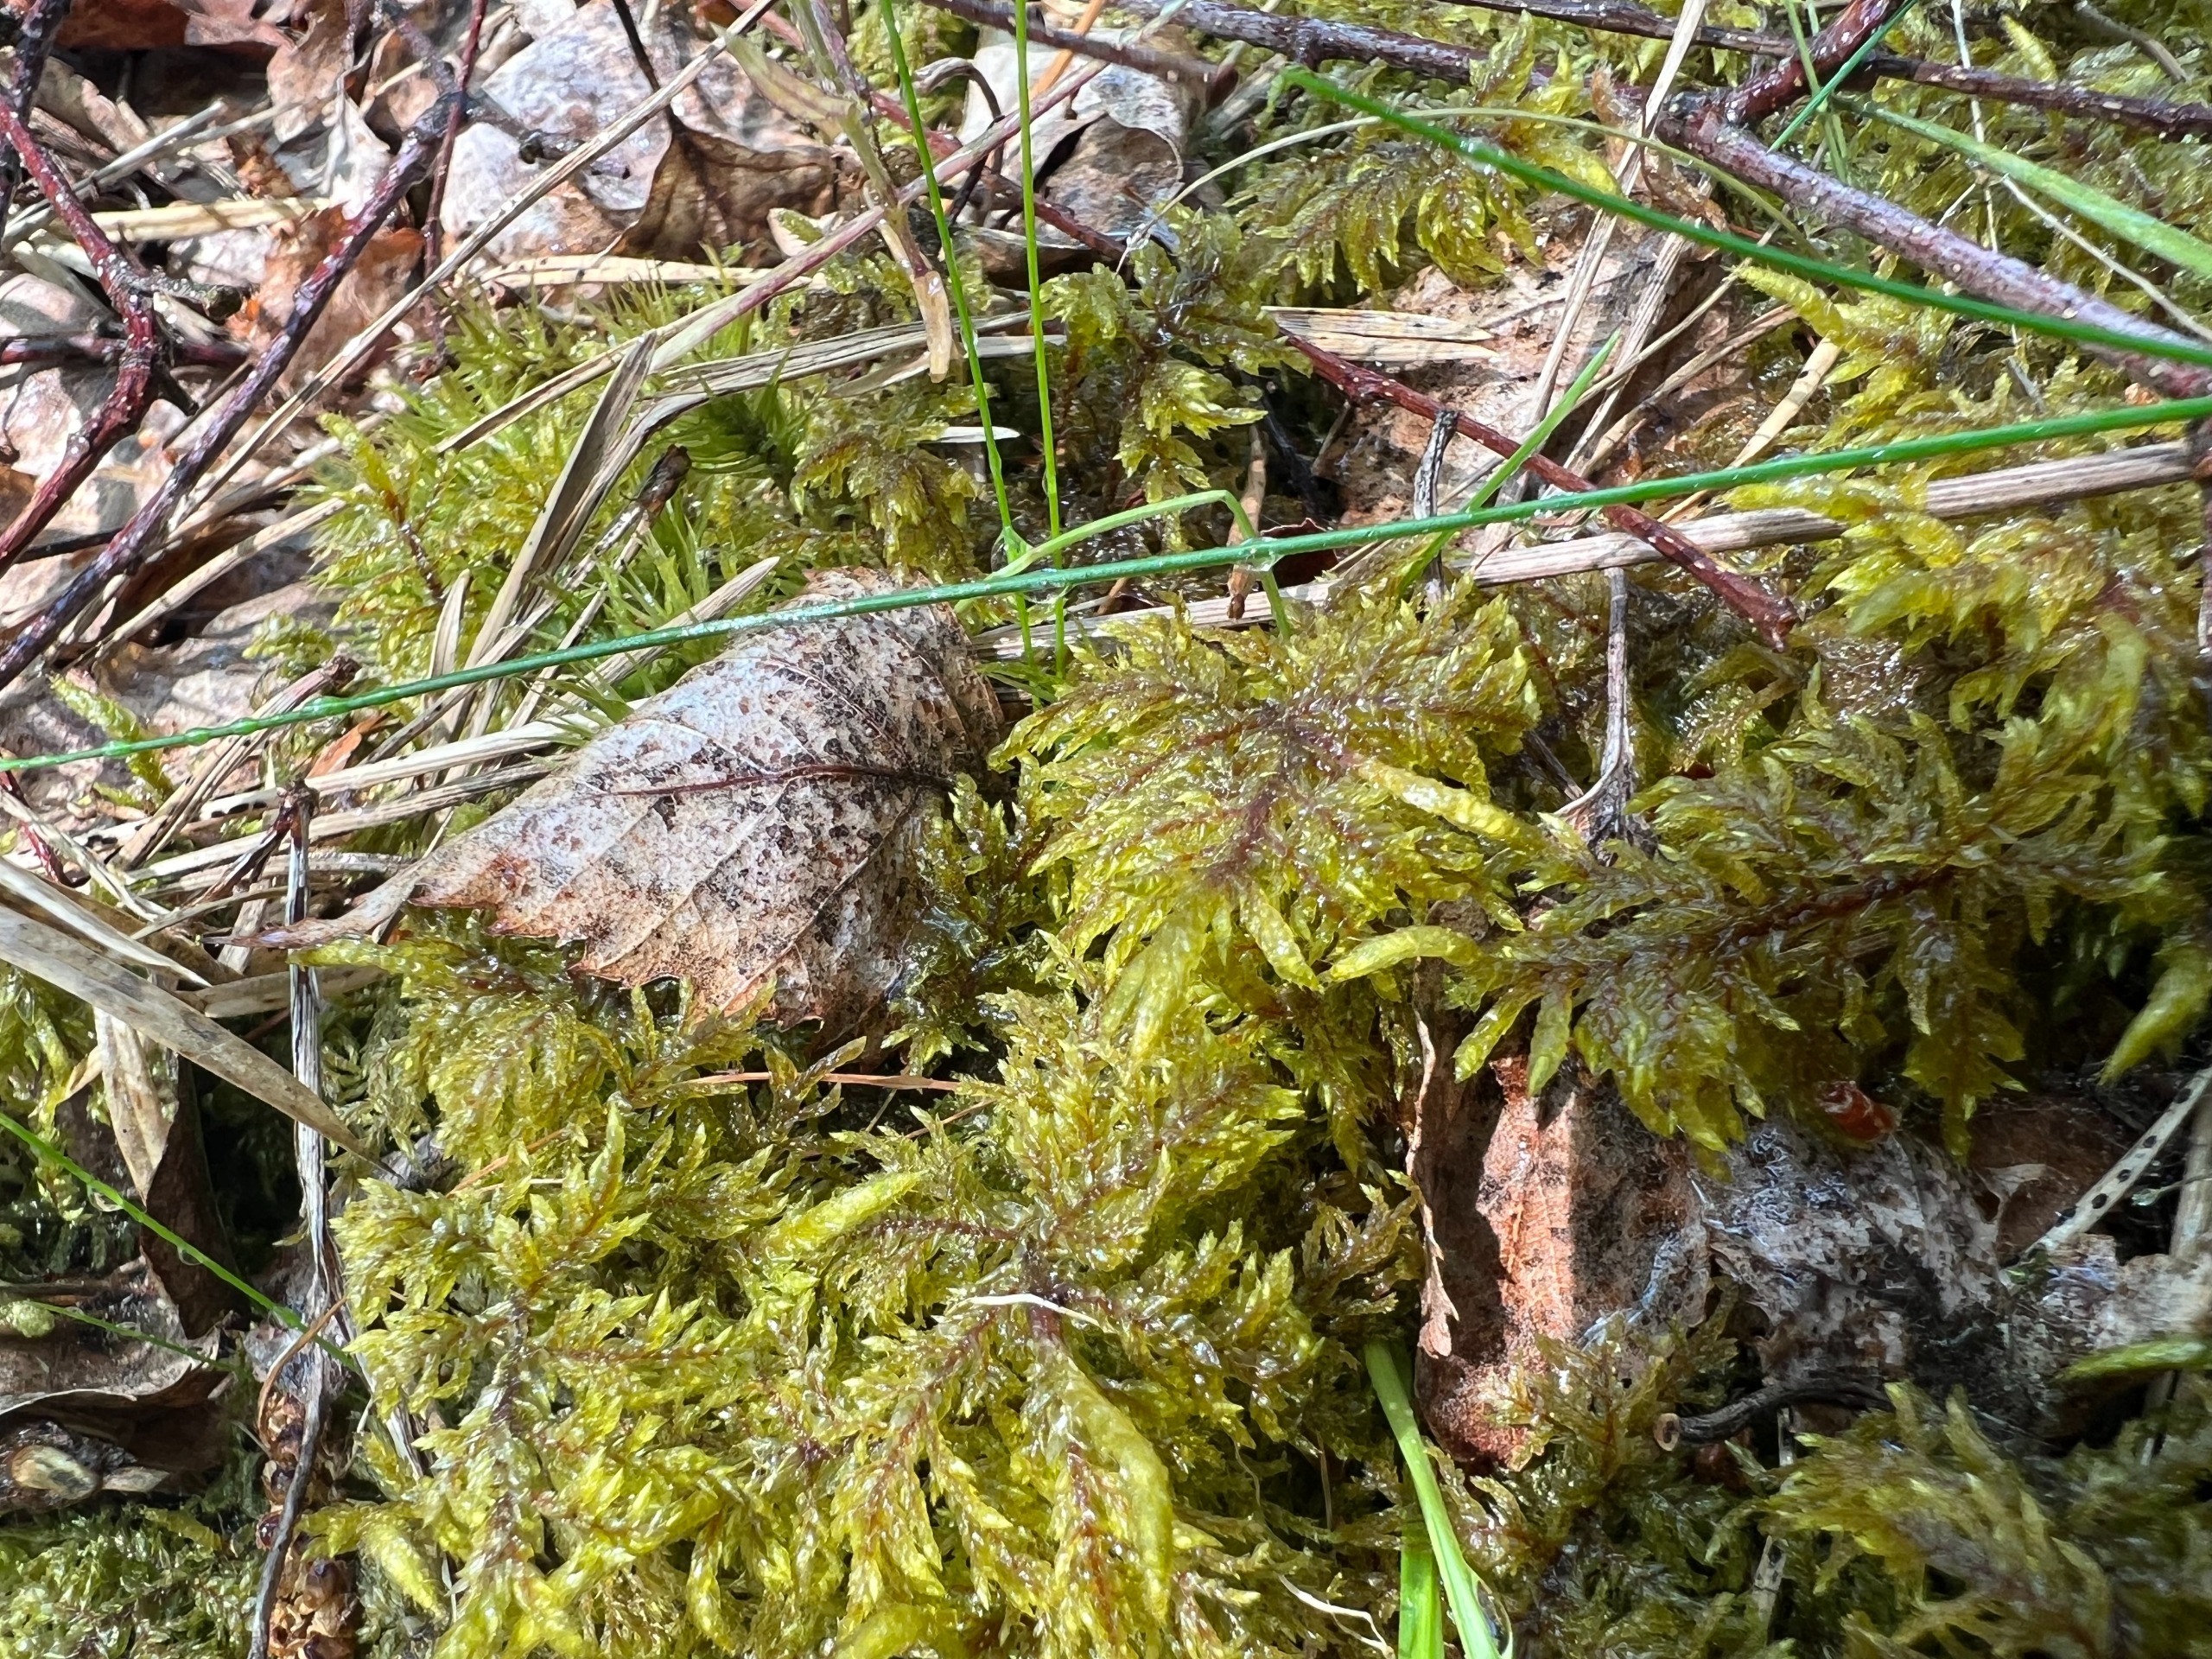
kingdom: Plantae
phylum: Bryophyta
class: Bryopsida
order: Hypnales
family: Hylocomiaceae
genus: Hylocomium
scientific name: Hylocomium splendens
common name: Almindelig etagemos
